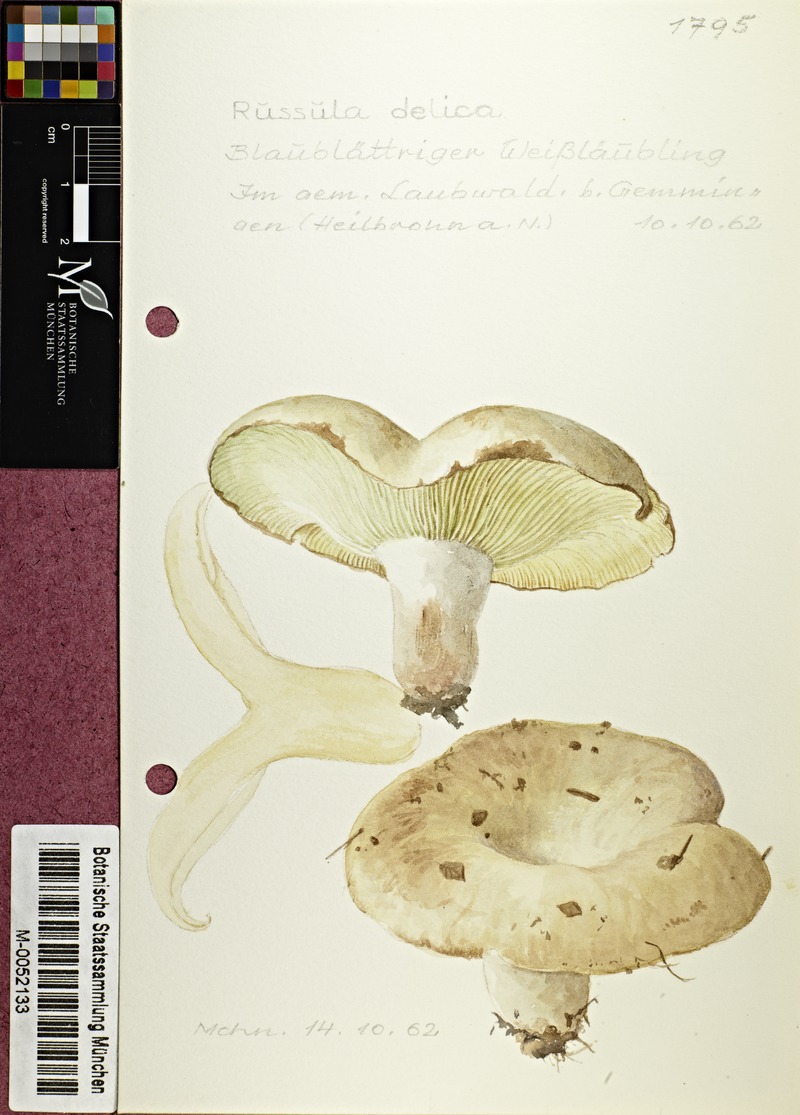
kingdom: Fungi
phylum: Basidiomycota
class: Agaricomycetes
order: Russulales
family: Russulaceae
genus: Russula
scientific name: Russula delica
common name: Milk white brittlegill
